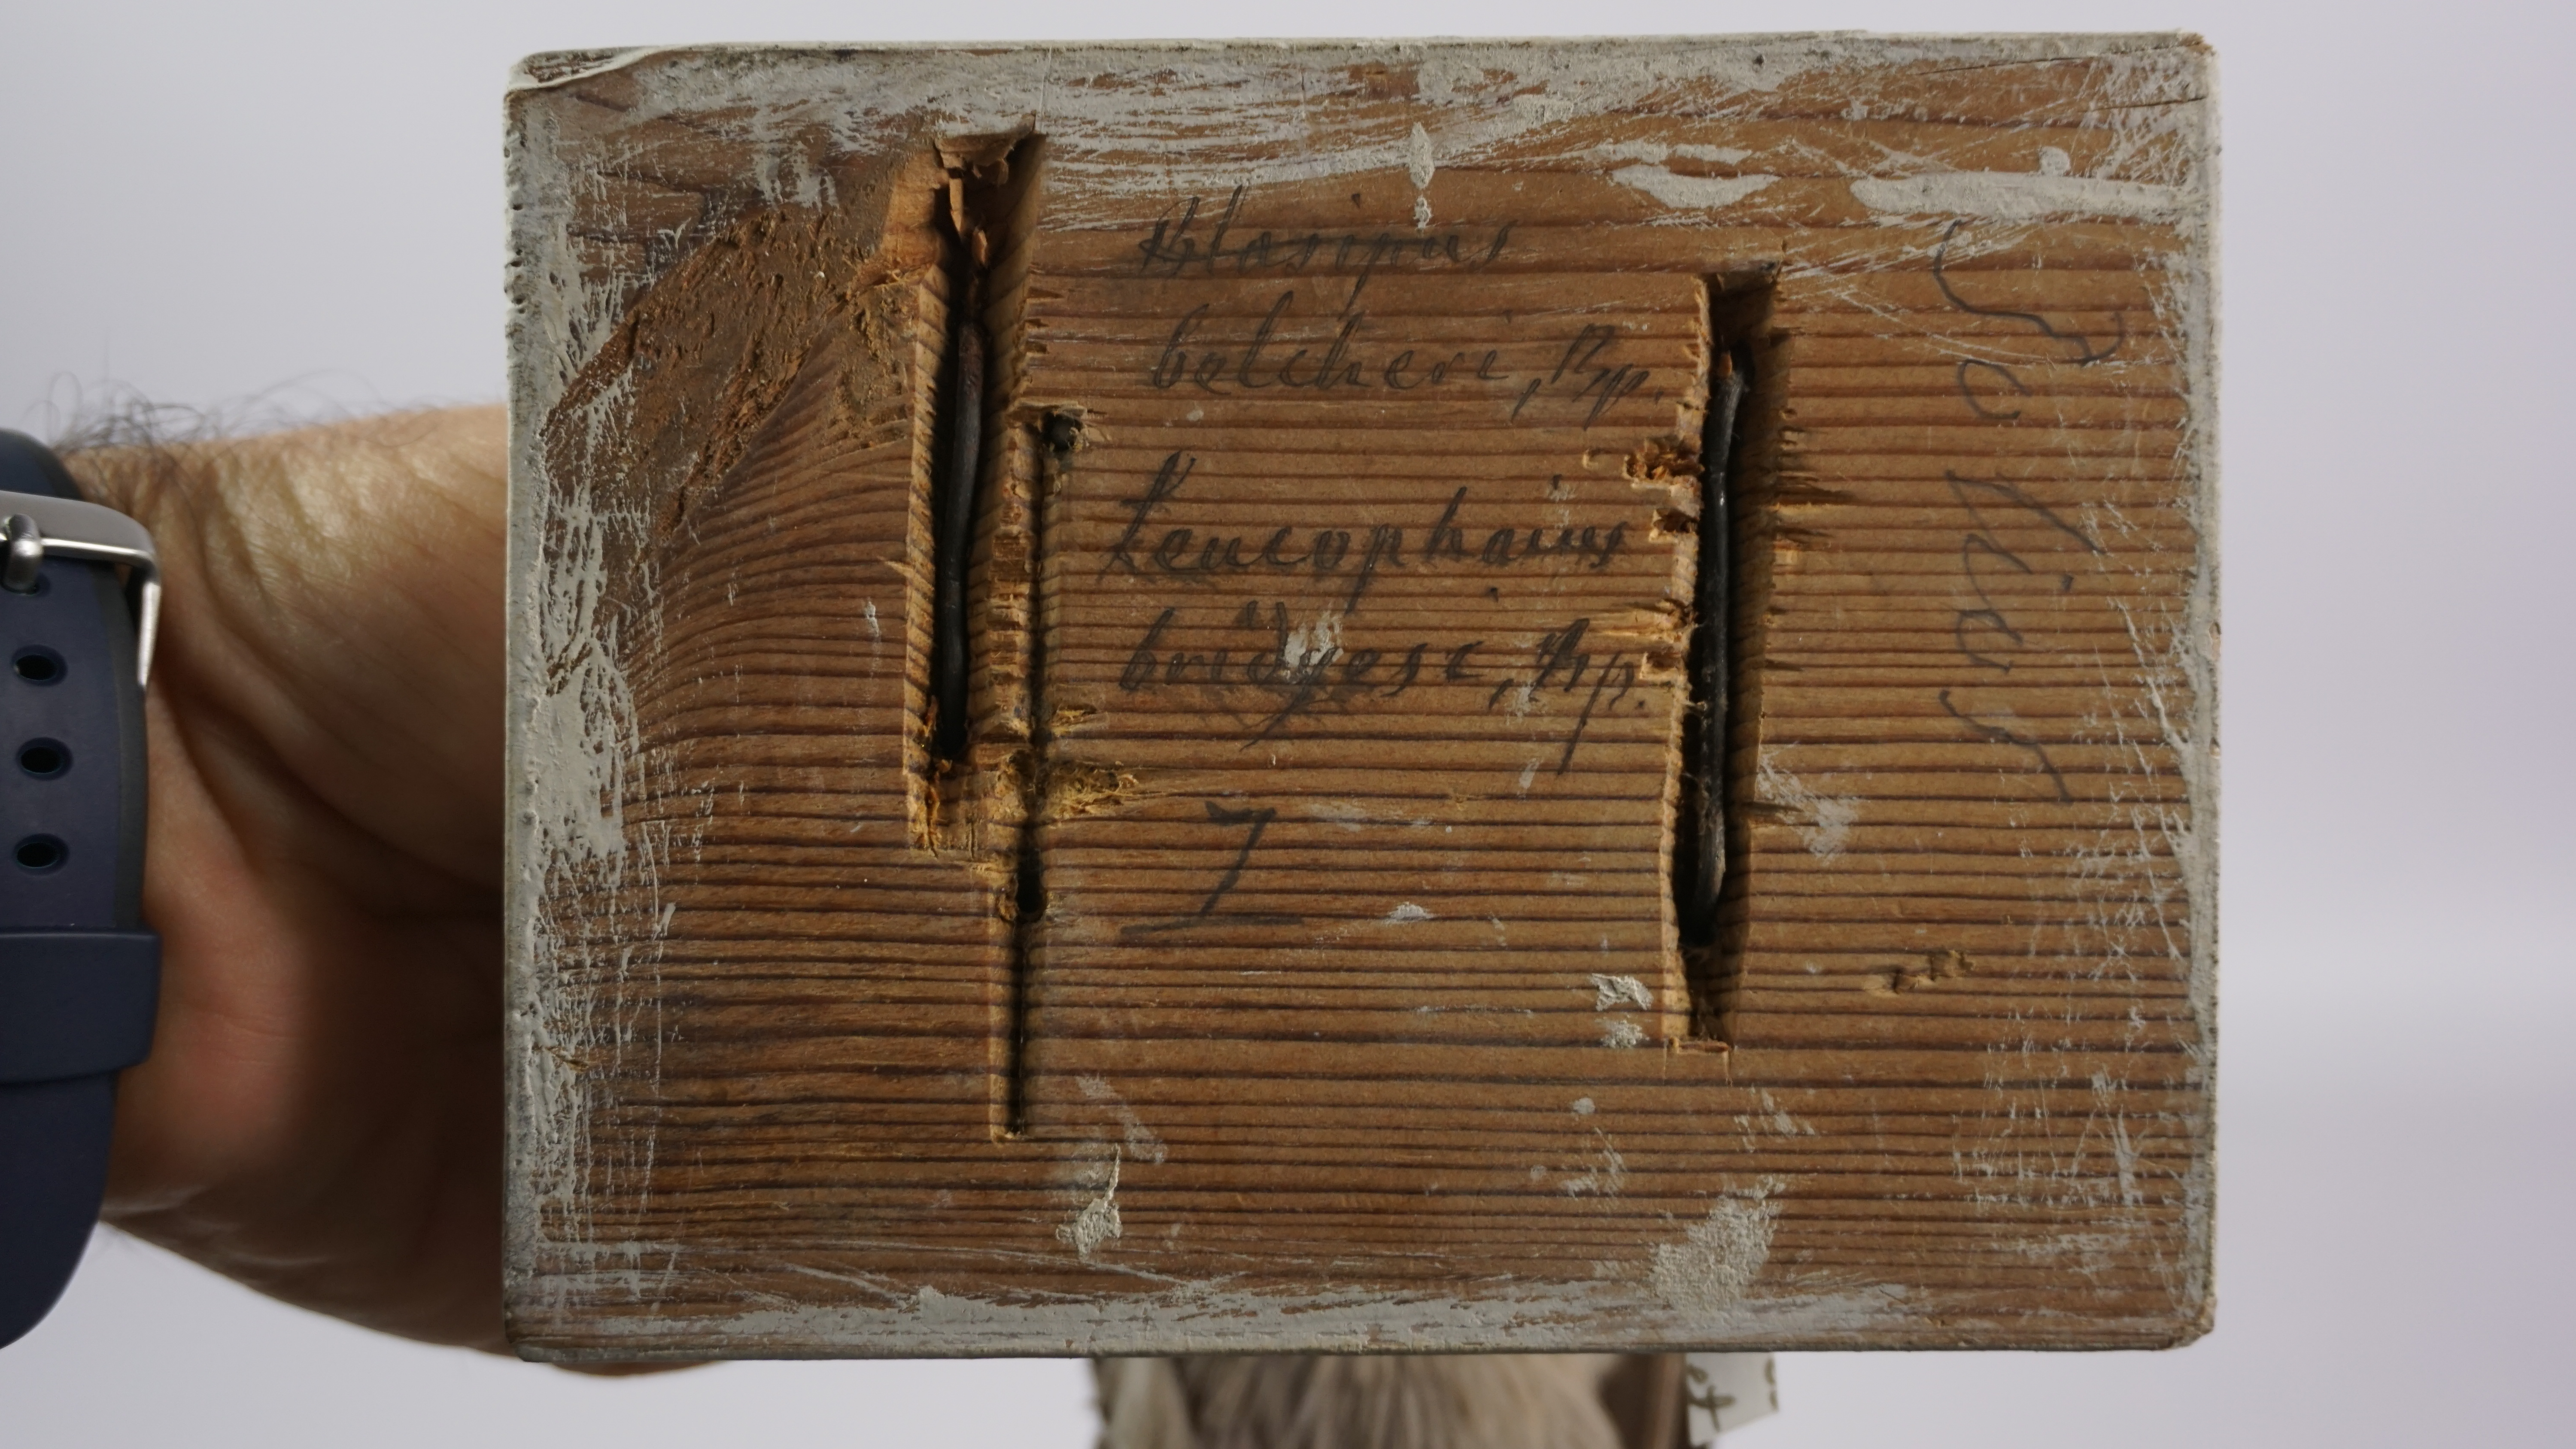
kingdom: Animalia
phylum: Chordata
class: Aves
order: Charadriiformes
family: Laridae
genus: Leucophaeus
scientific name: Leucophaeus modestus
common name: Gray gull
